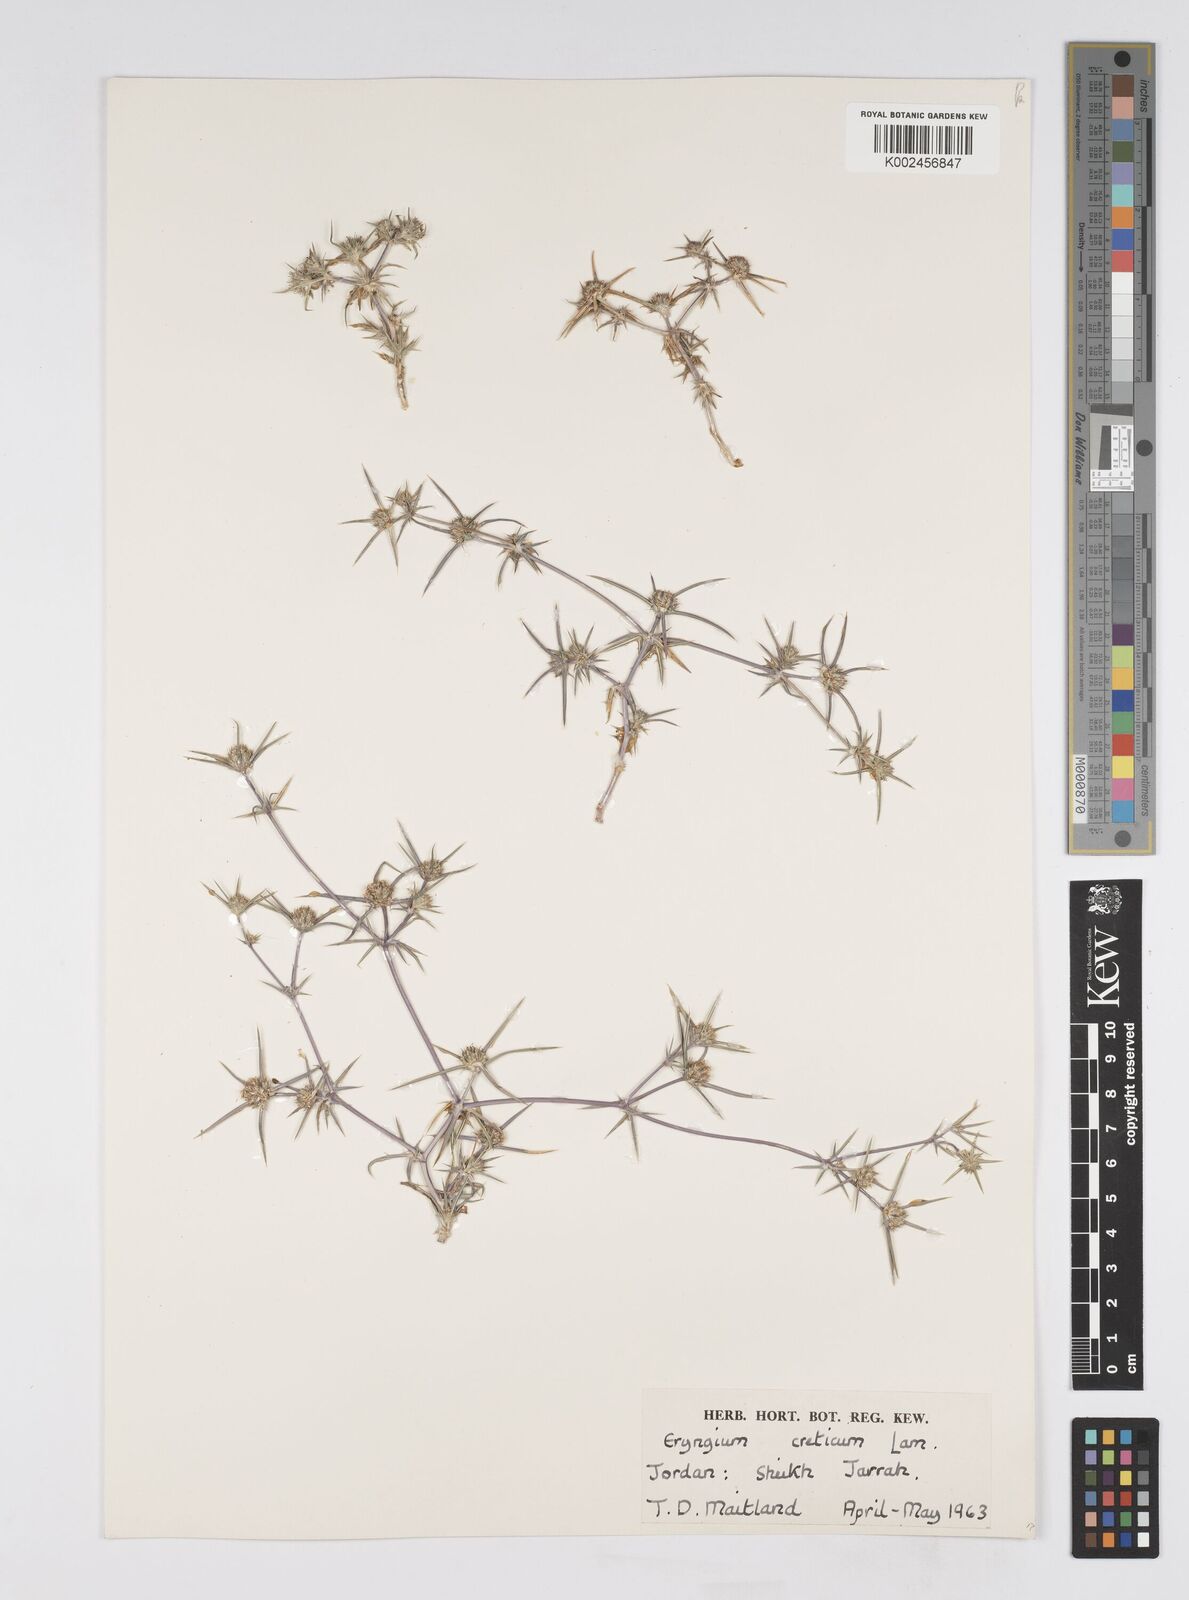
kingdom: Plantae
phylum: Tracheophyta
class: Magnoliopsida
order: Apiales
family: Apiaceae
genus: Eryngium
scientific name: Eryngium creticum
